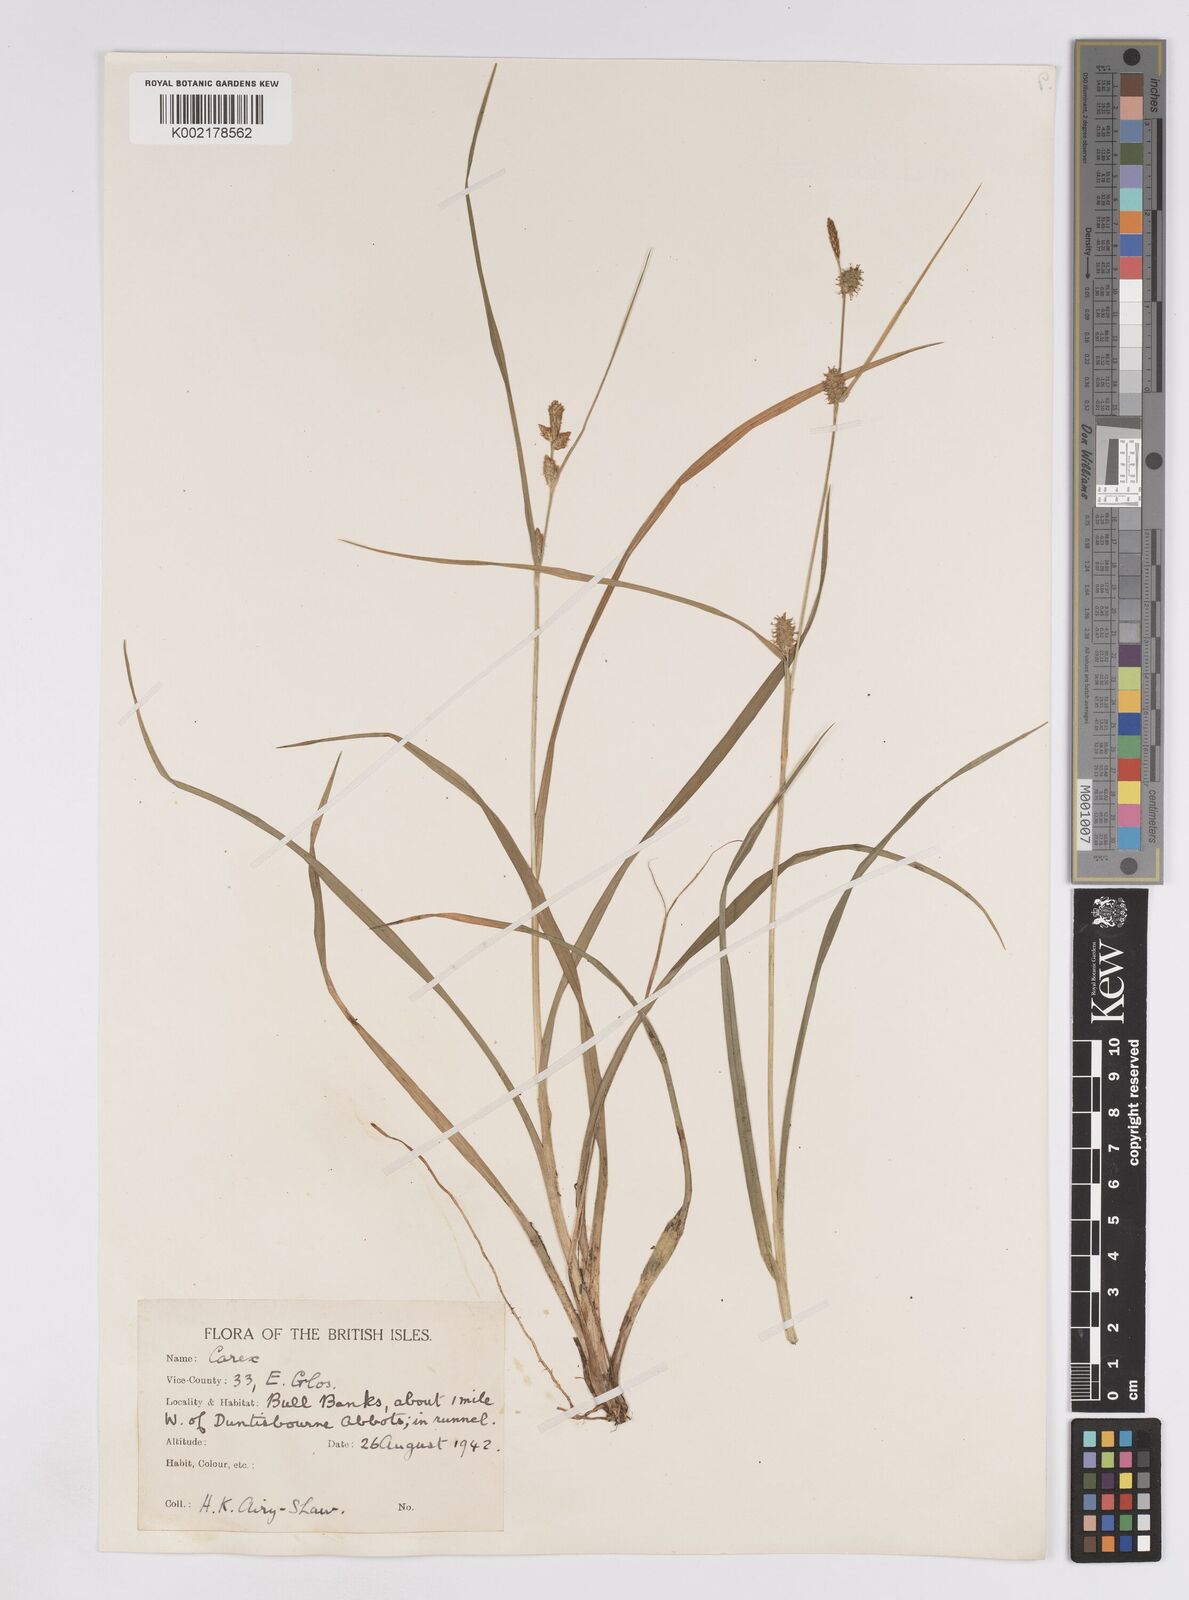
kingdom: Plantae
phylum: Tracheophyta
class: Liliopsida
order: Poales
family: Cyperaceae
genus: Carex
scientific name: Carex lepidocarpa
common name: Long-stalked yellow-sedge
